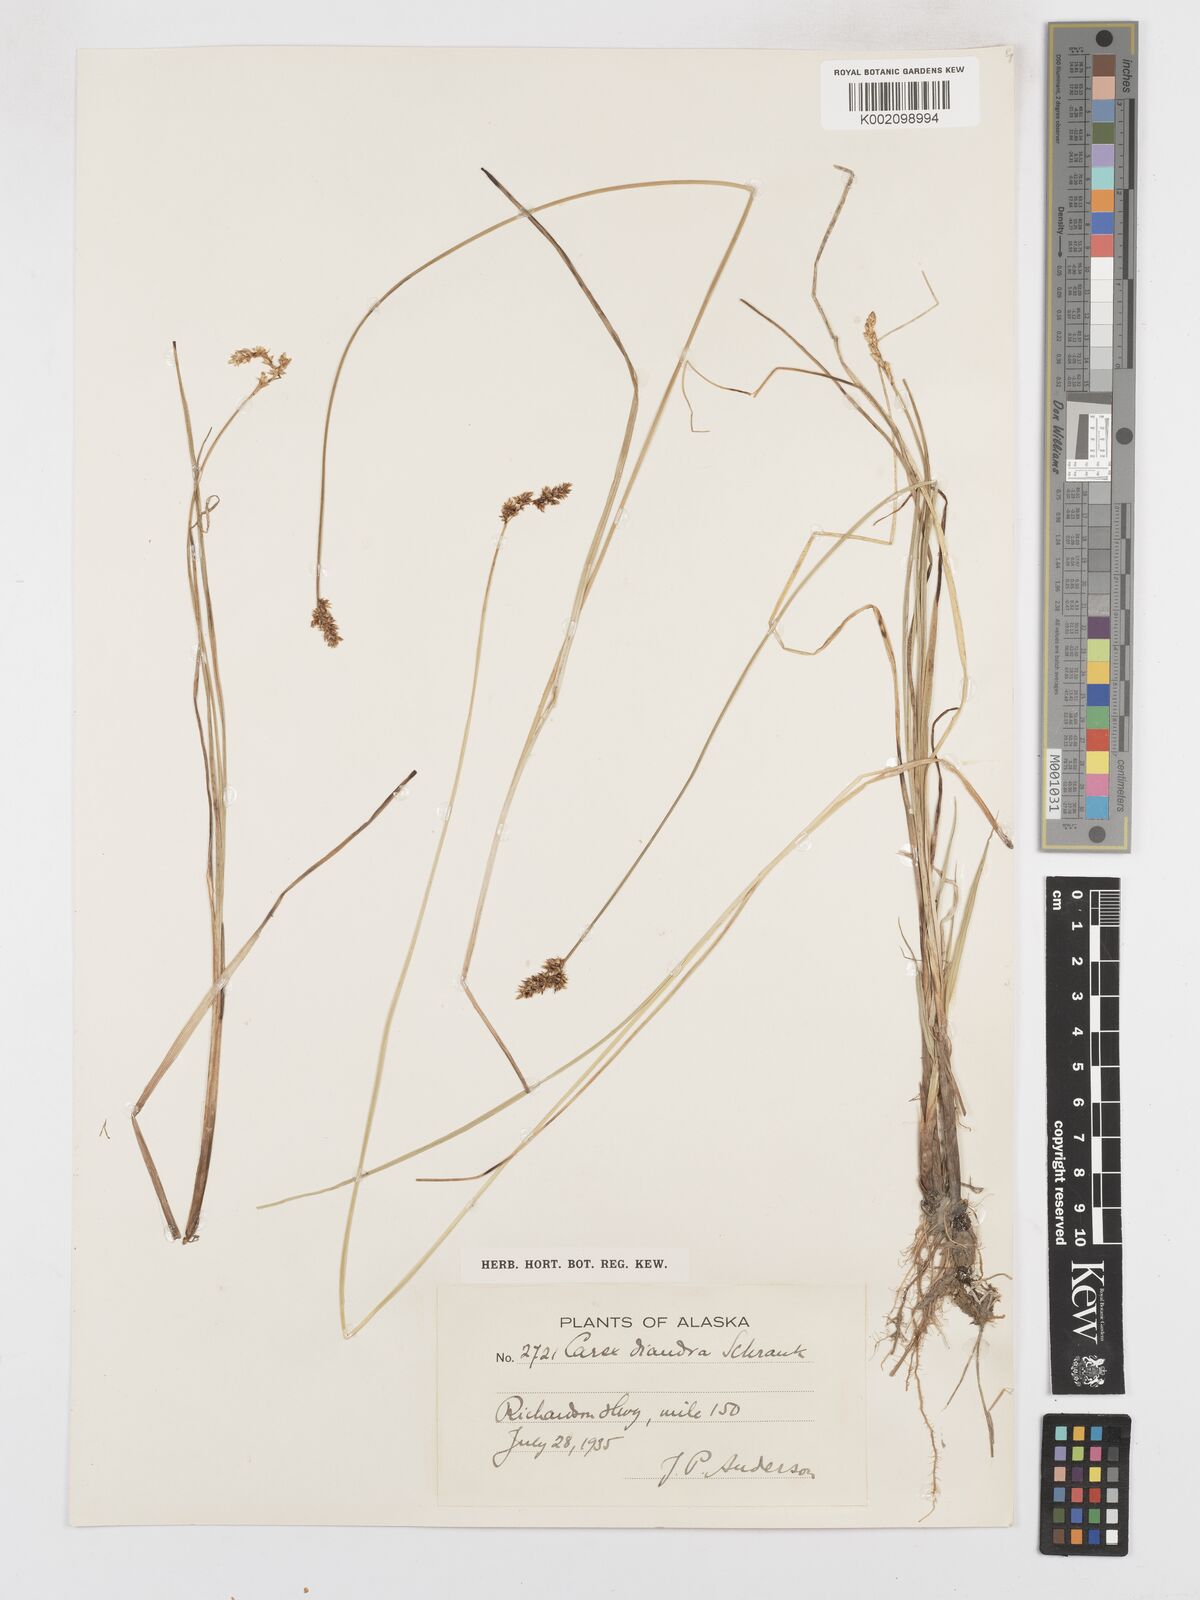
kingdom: Plantae
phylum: Tracheophyta
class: Liliopsida
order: Poales
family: Cyperaceae
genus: Carex
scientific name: Carex diandra
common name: Lesser tussock-sedge
